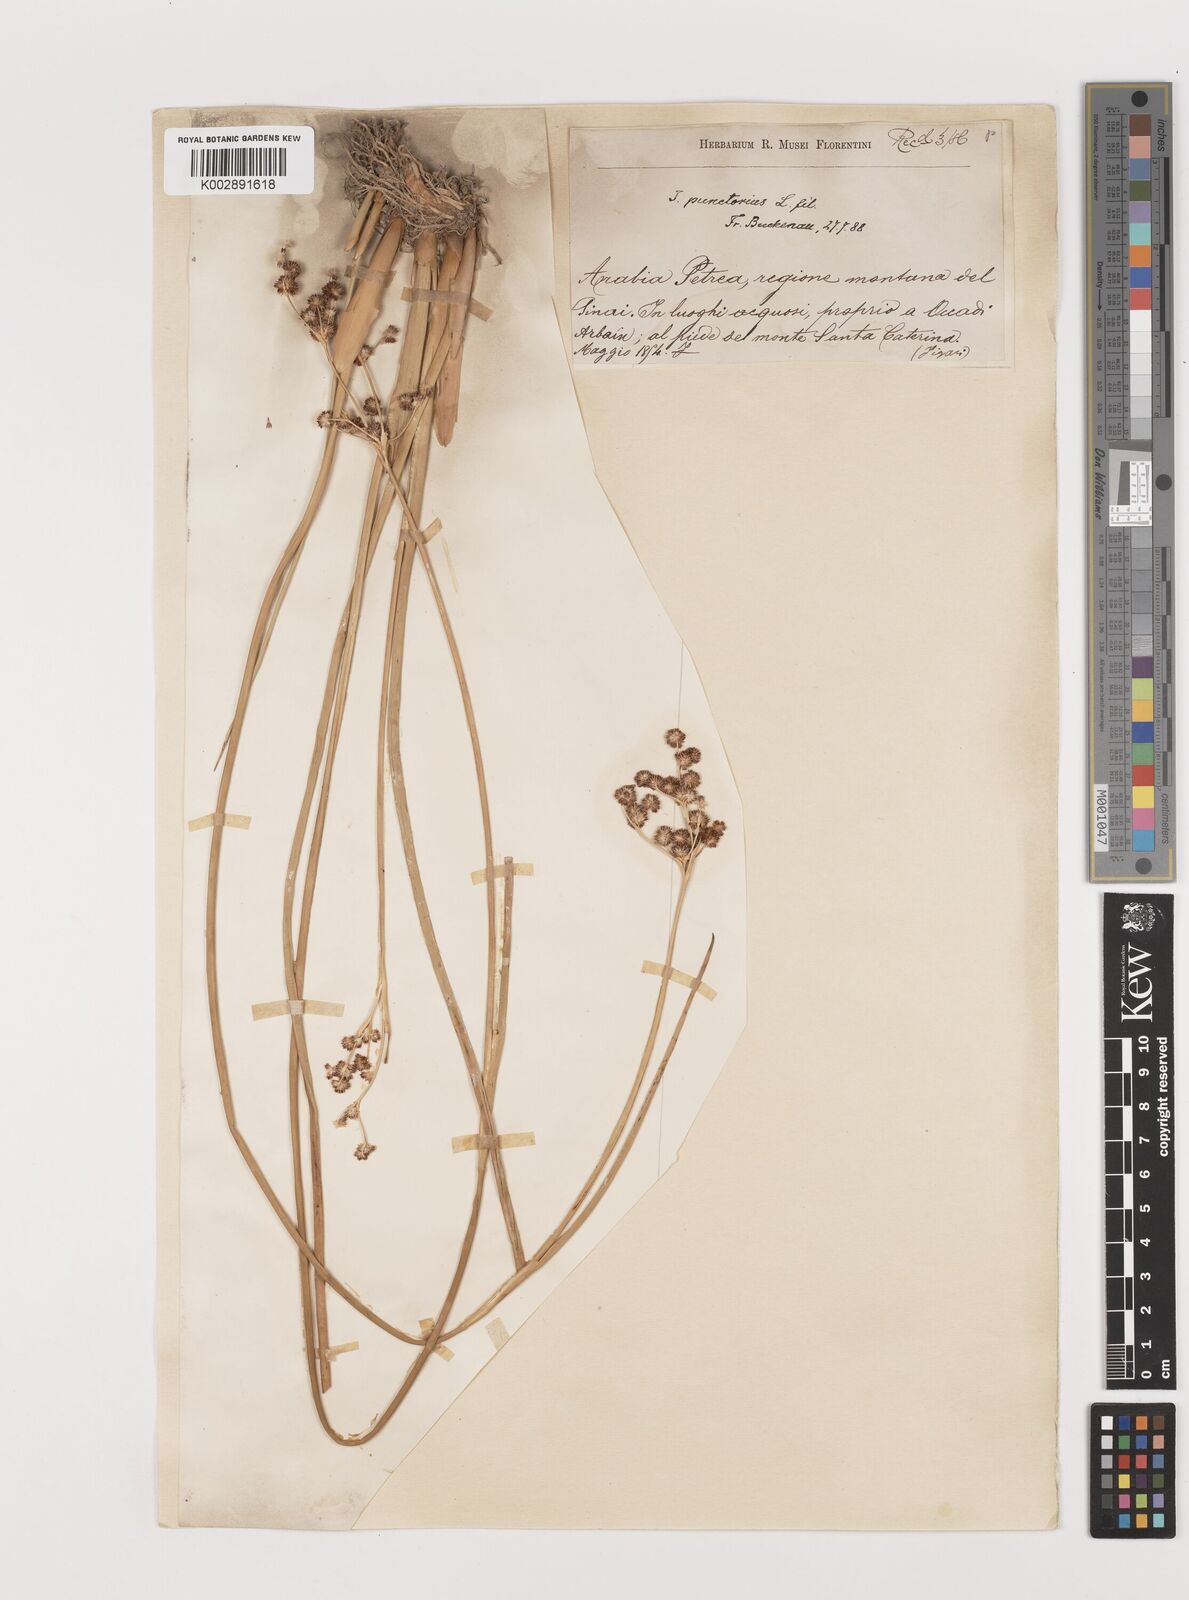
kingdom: Plantae
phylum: Tracheophyta
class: Liliopsida
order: Poales
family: Juncaceae
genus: Juncus
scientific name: Juncus punctorius
